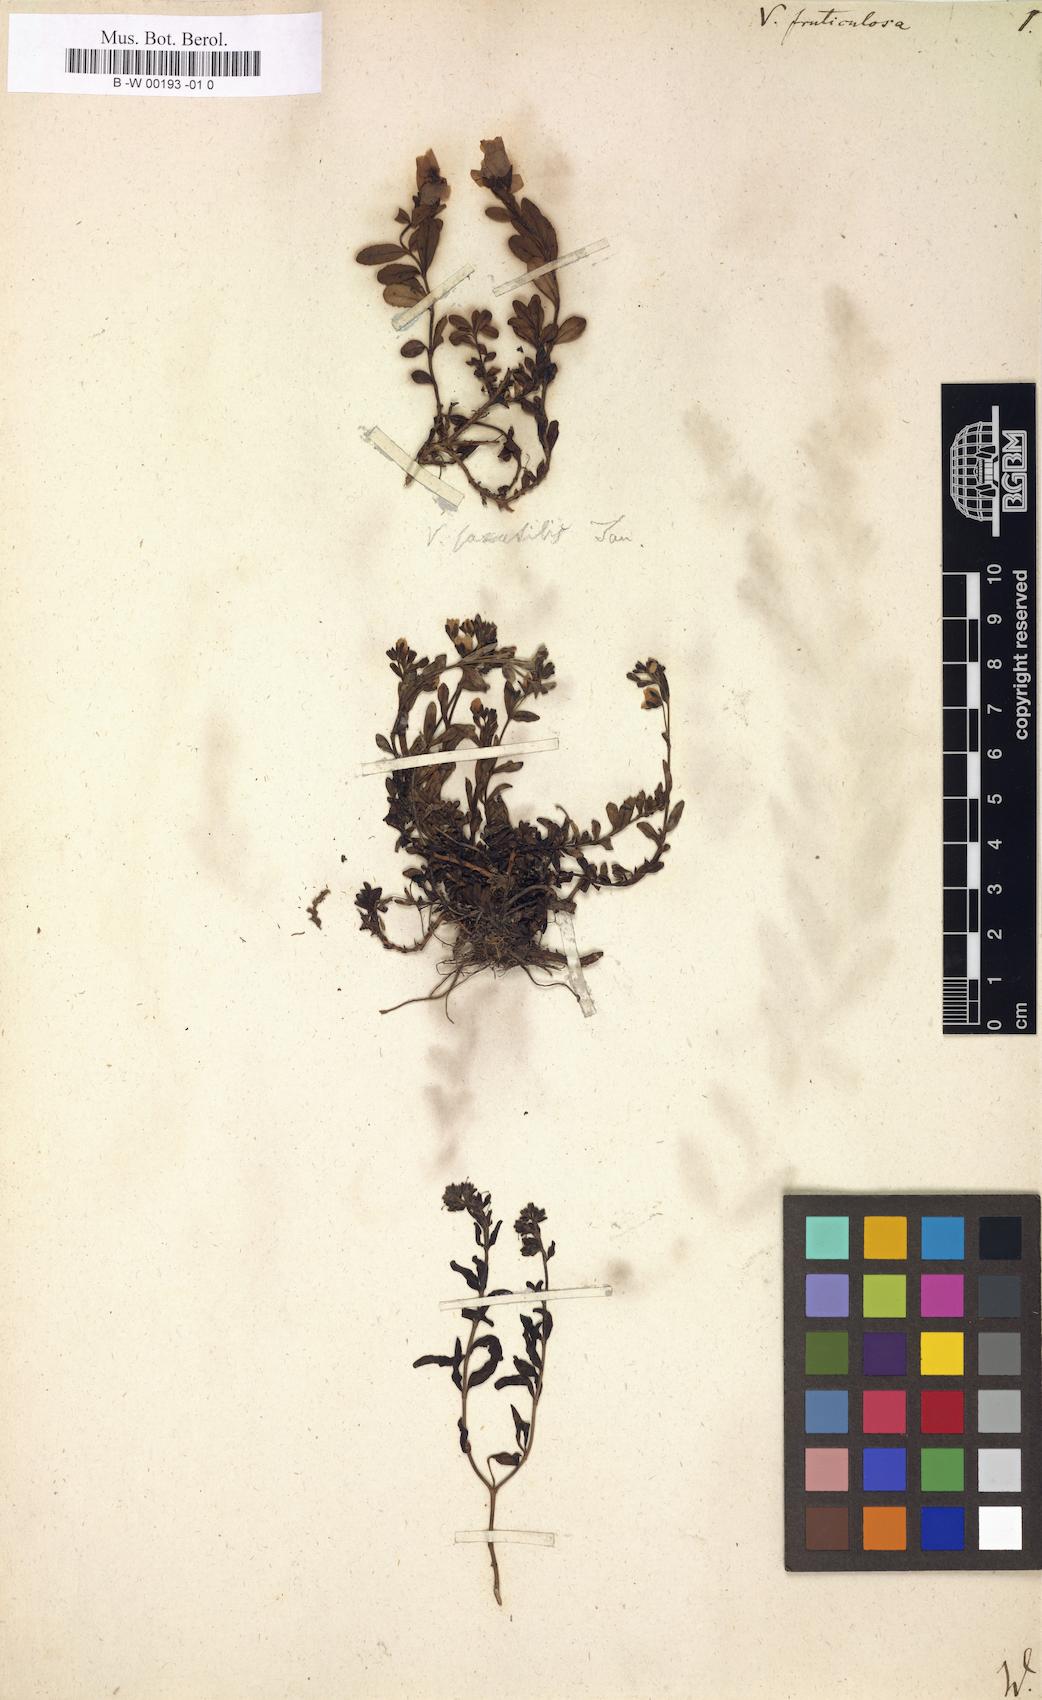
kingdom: Plantae
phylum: Tracheophyta
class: Magnoliopsida
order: Lamiales
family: Plantaginaceae
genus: Veronica
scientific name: Veronica fruticulosa
